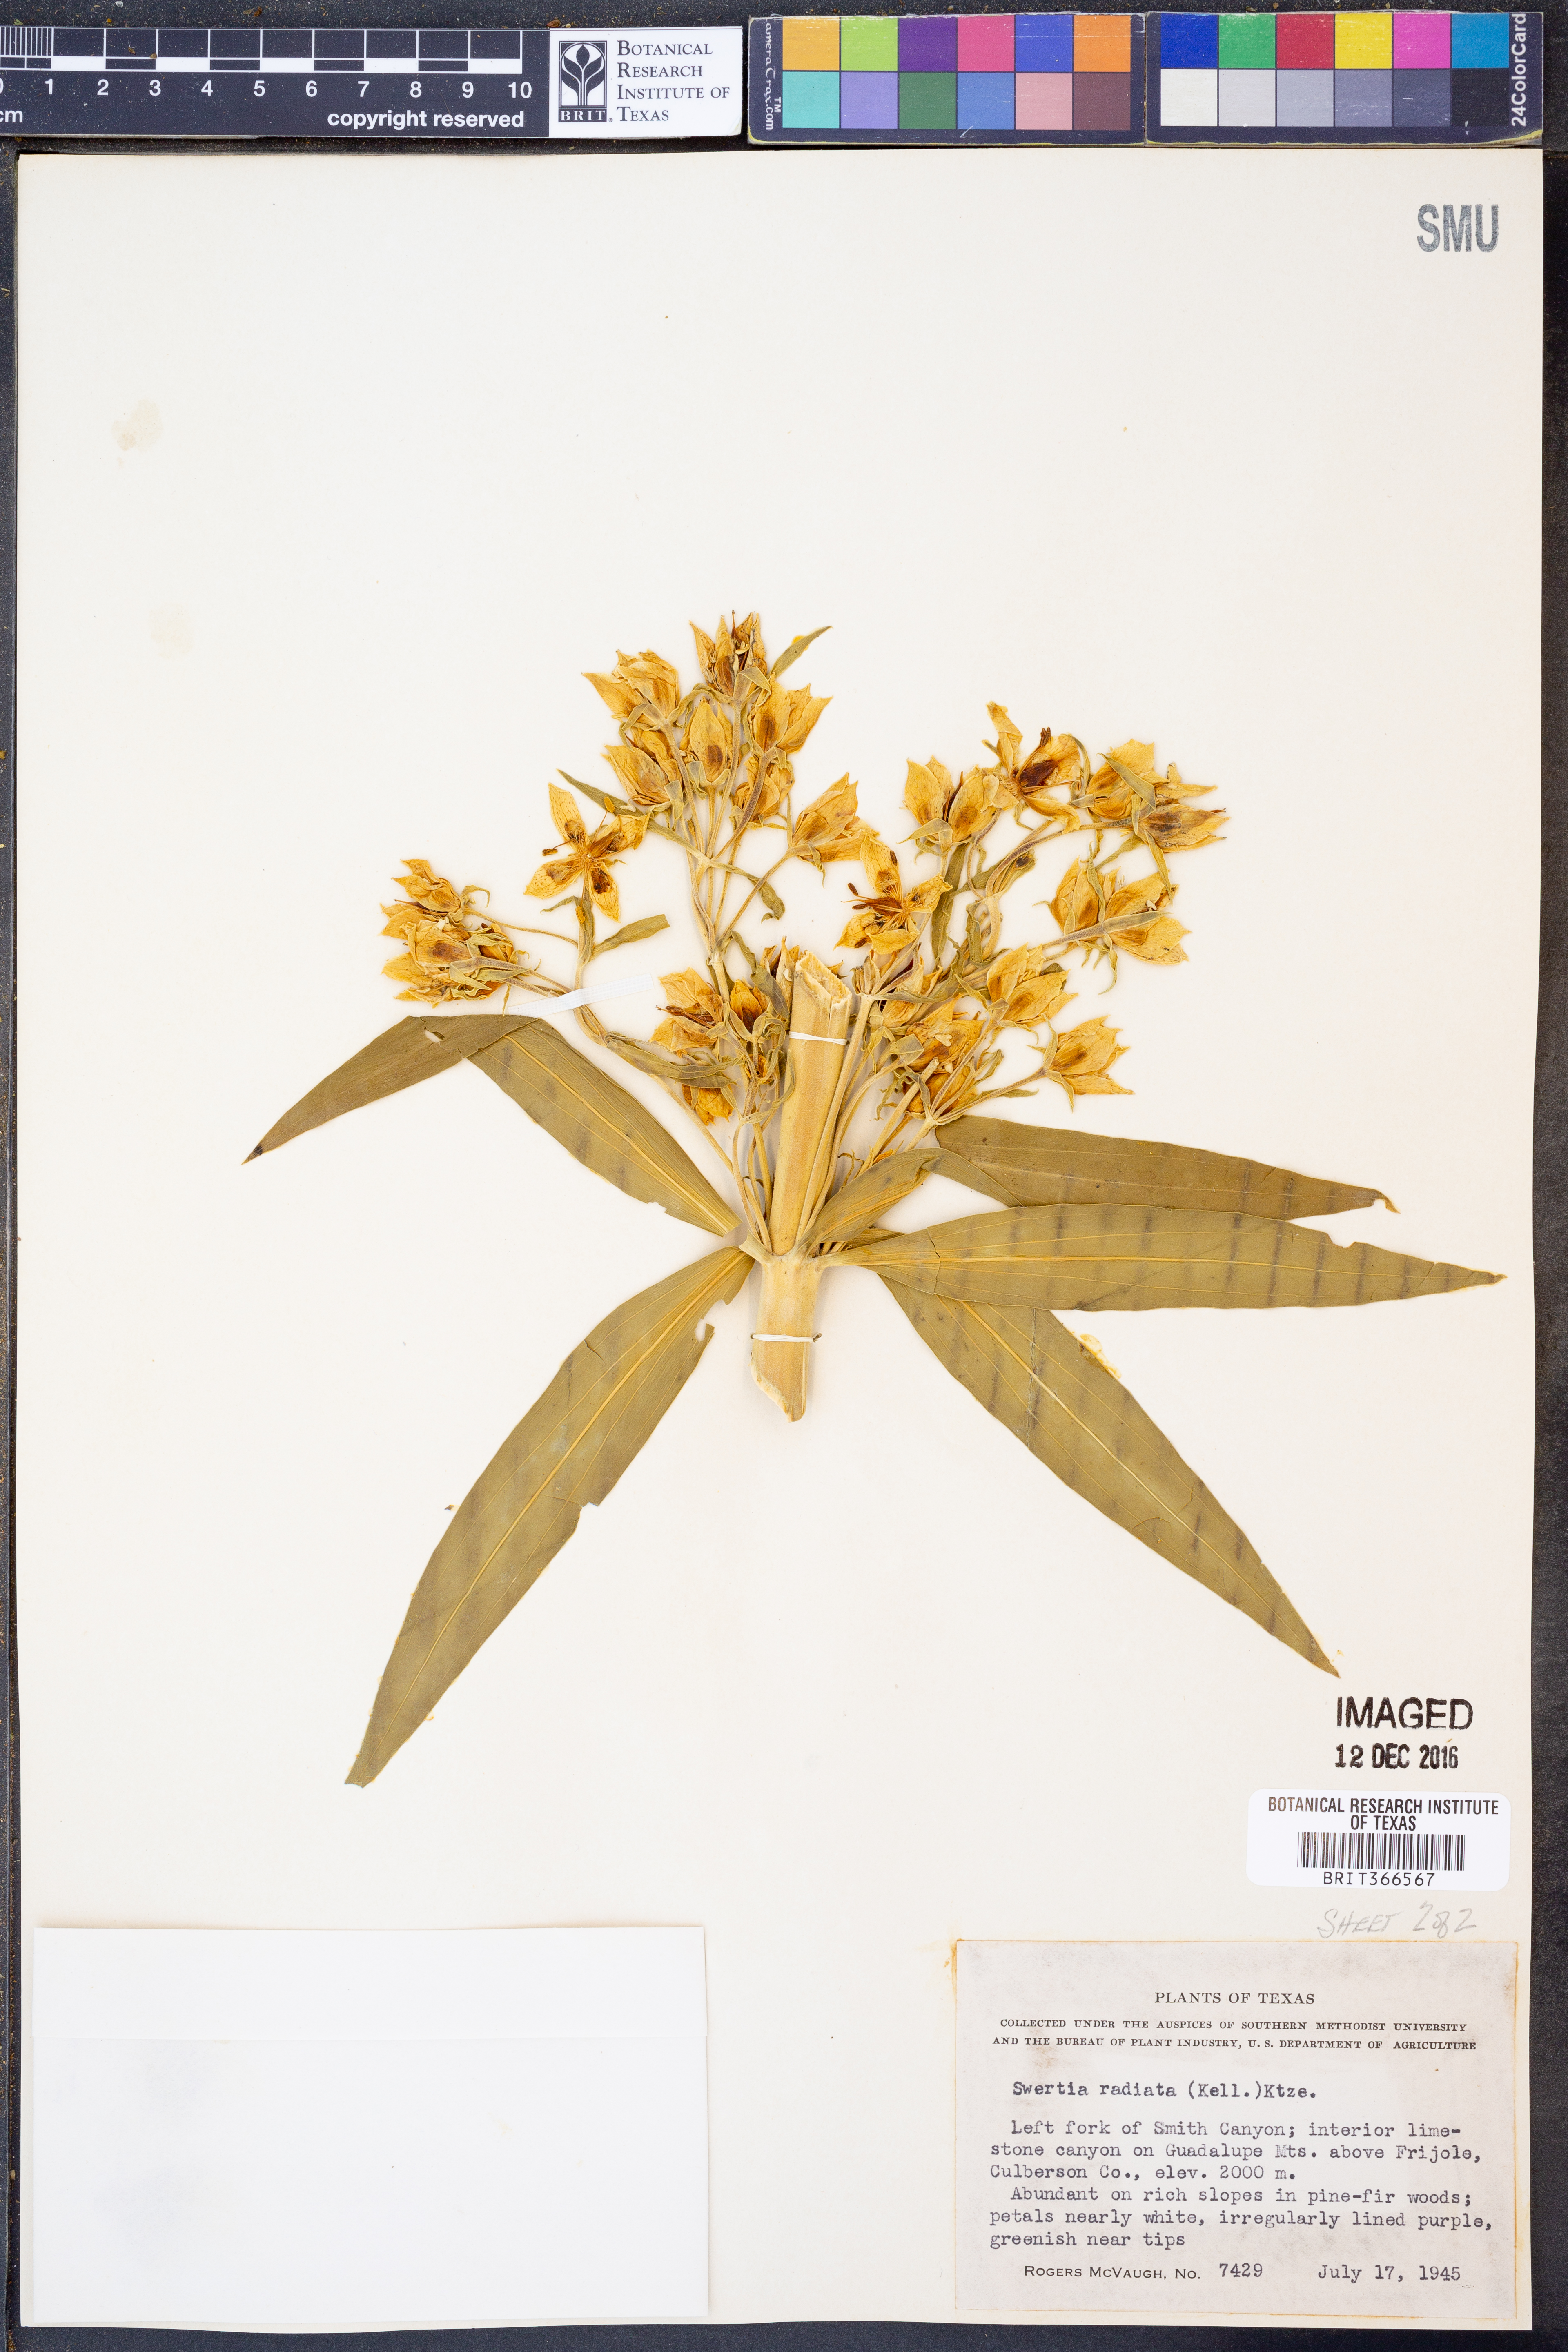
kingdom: Plantae
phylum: Tracheophyta
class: Magnoliopsida
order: Gentianales
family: Gentianaceae
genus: Frasera
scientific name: Frasera speciosa
